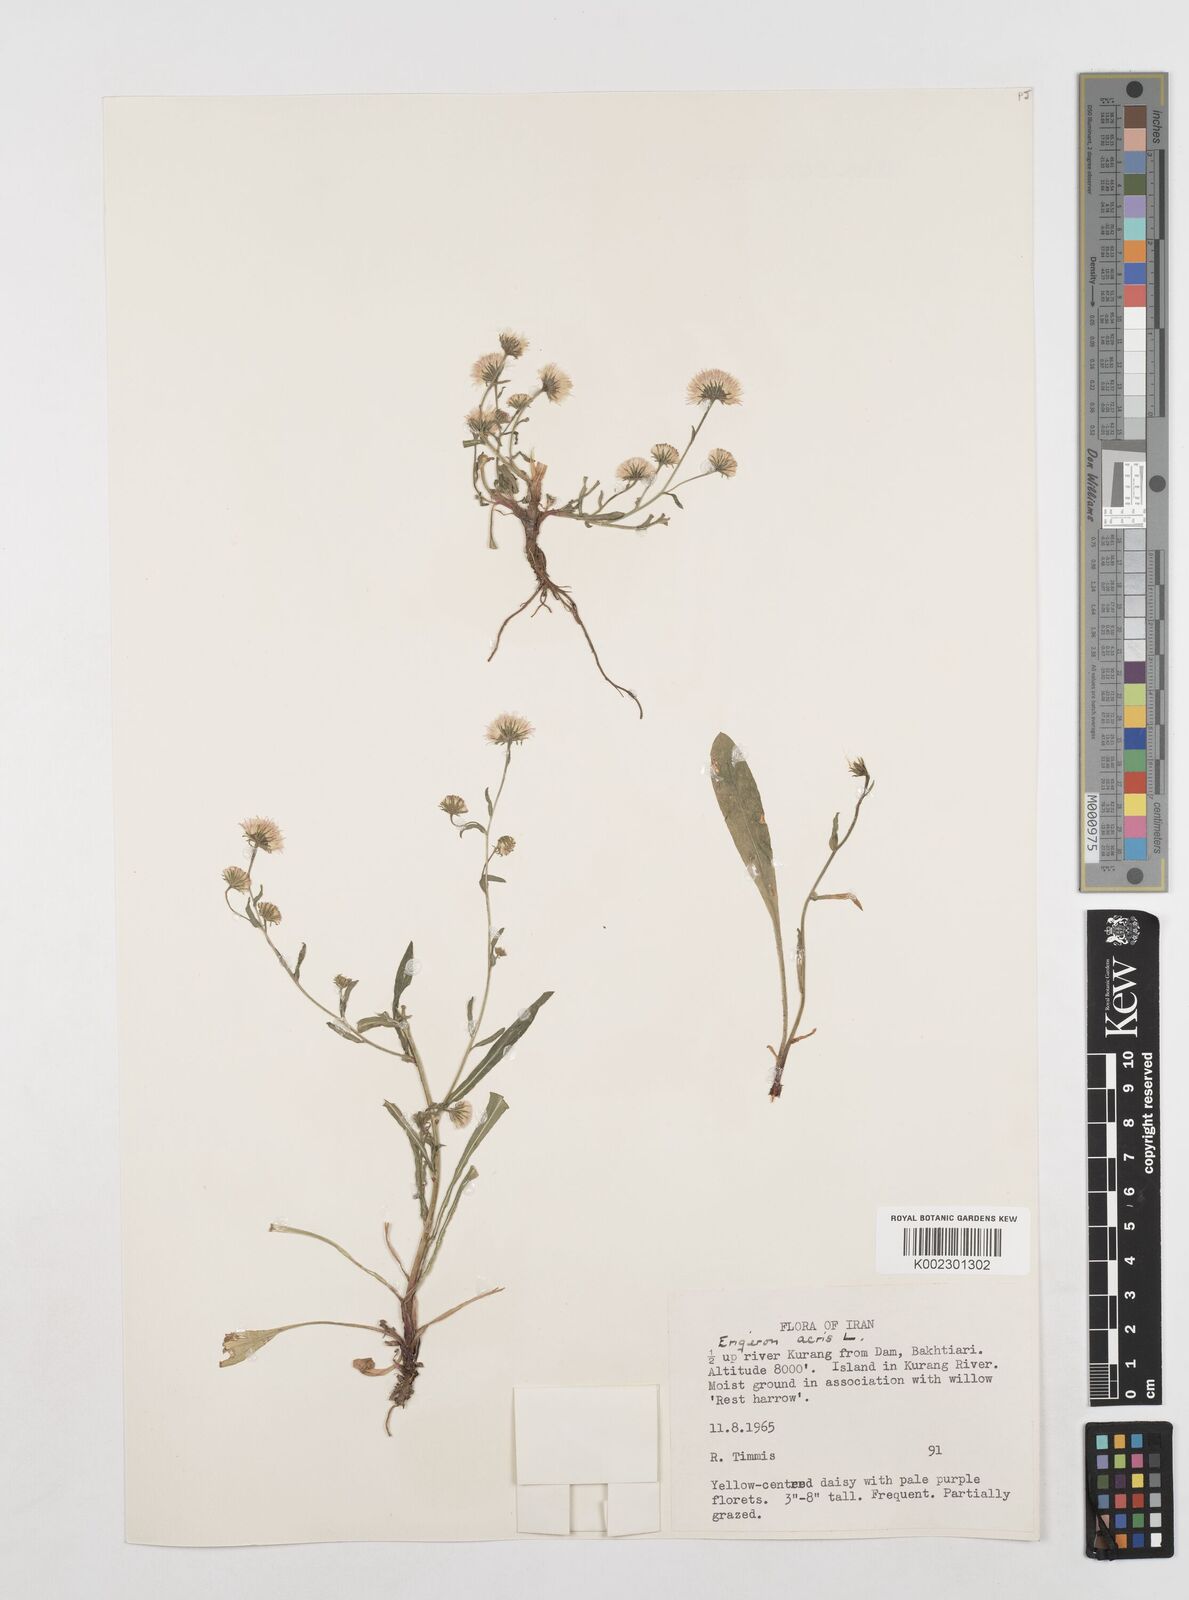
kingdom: Plantae
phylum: Tracheophyta
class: Magnoliopsida
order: Asterales
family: Asteraceae
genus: Erigeron
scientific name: Erigeron acris
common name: Blue fleabane
